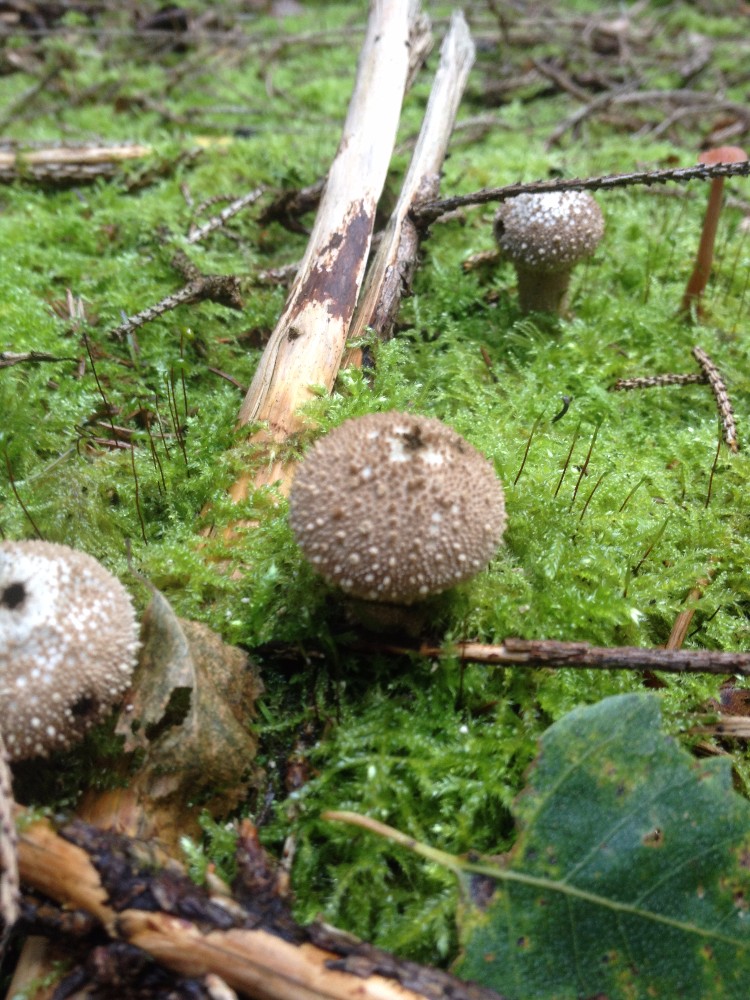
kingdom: Fungi
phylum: Basidiomycota
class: Agaricomycetes
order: Agaricales
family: Lycoperdaceae
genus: Lycoperdon
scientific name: Lycoperdon perlatum
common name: krystal-støvbold
